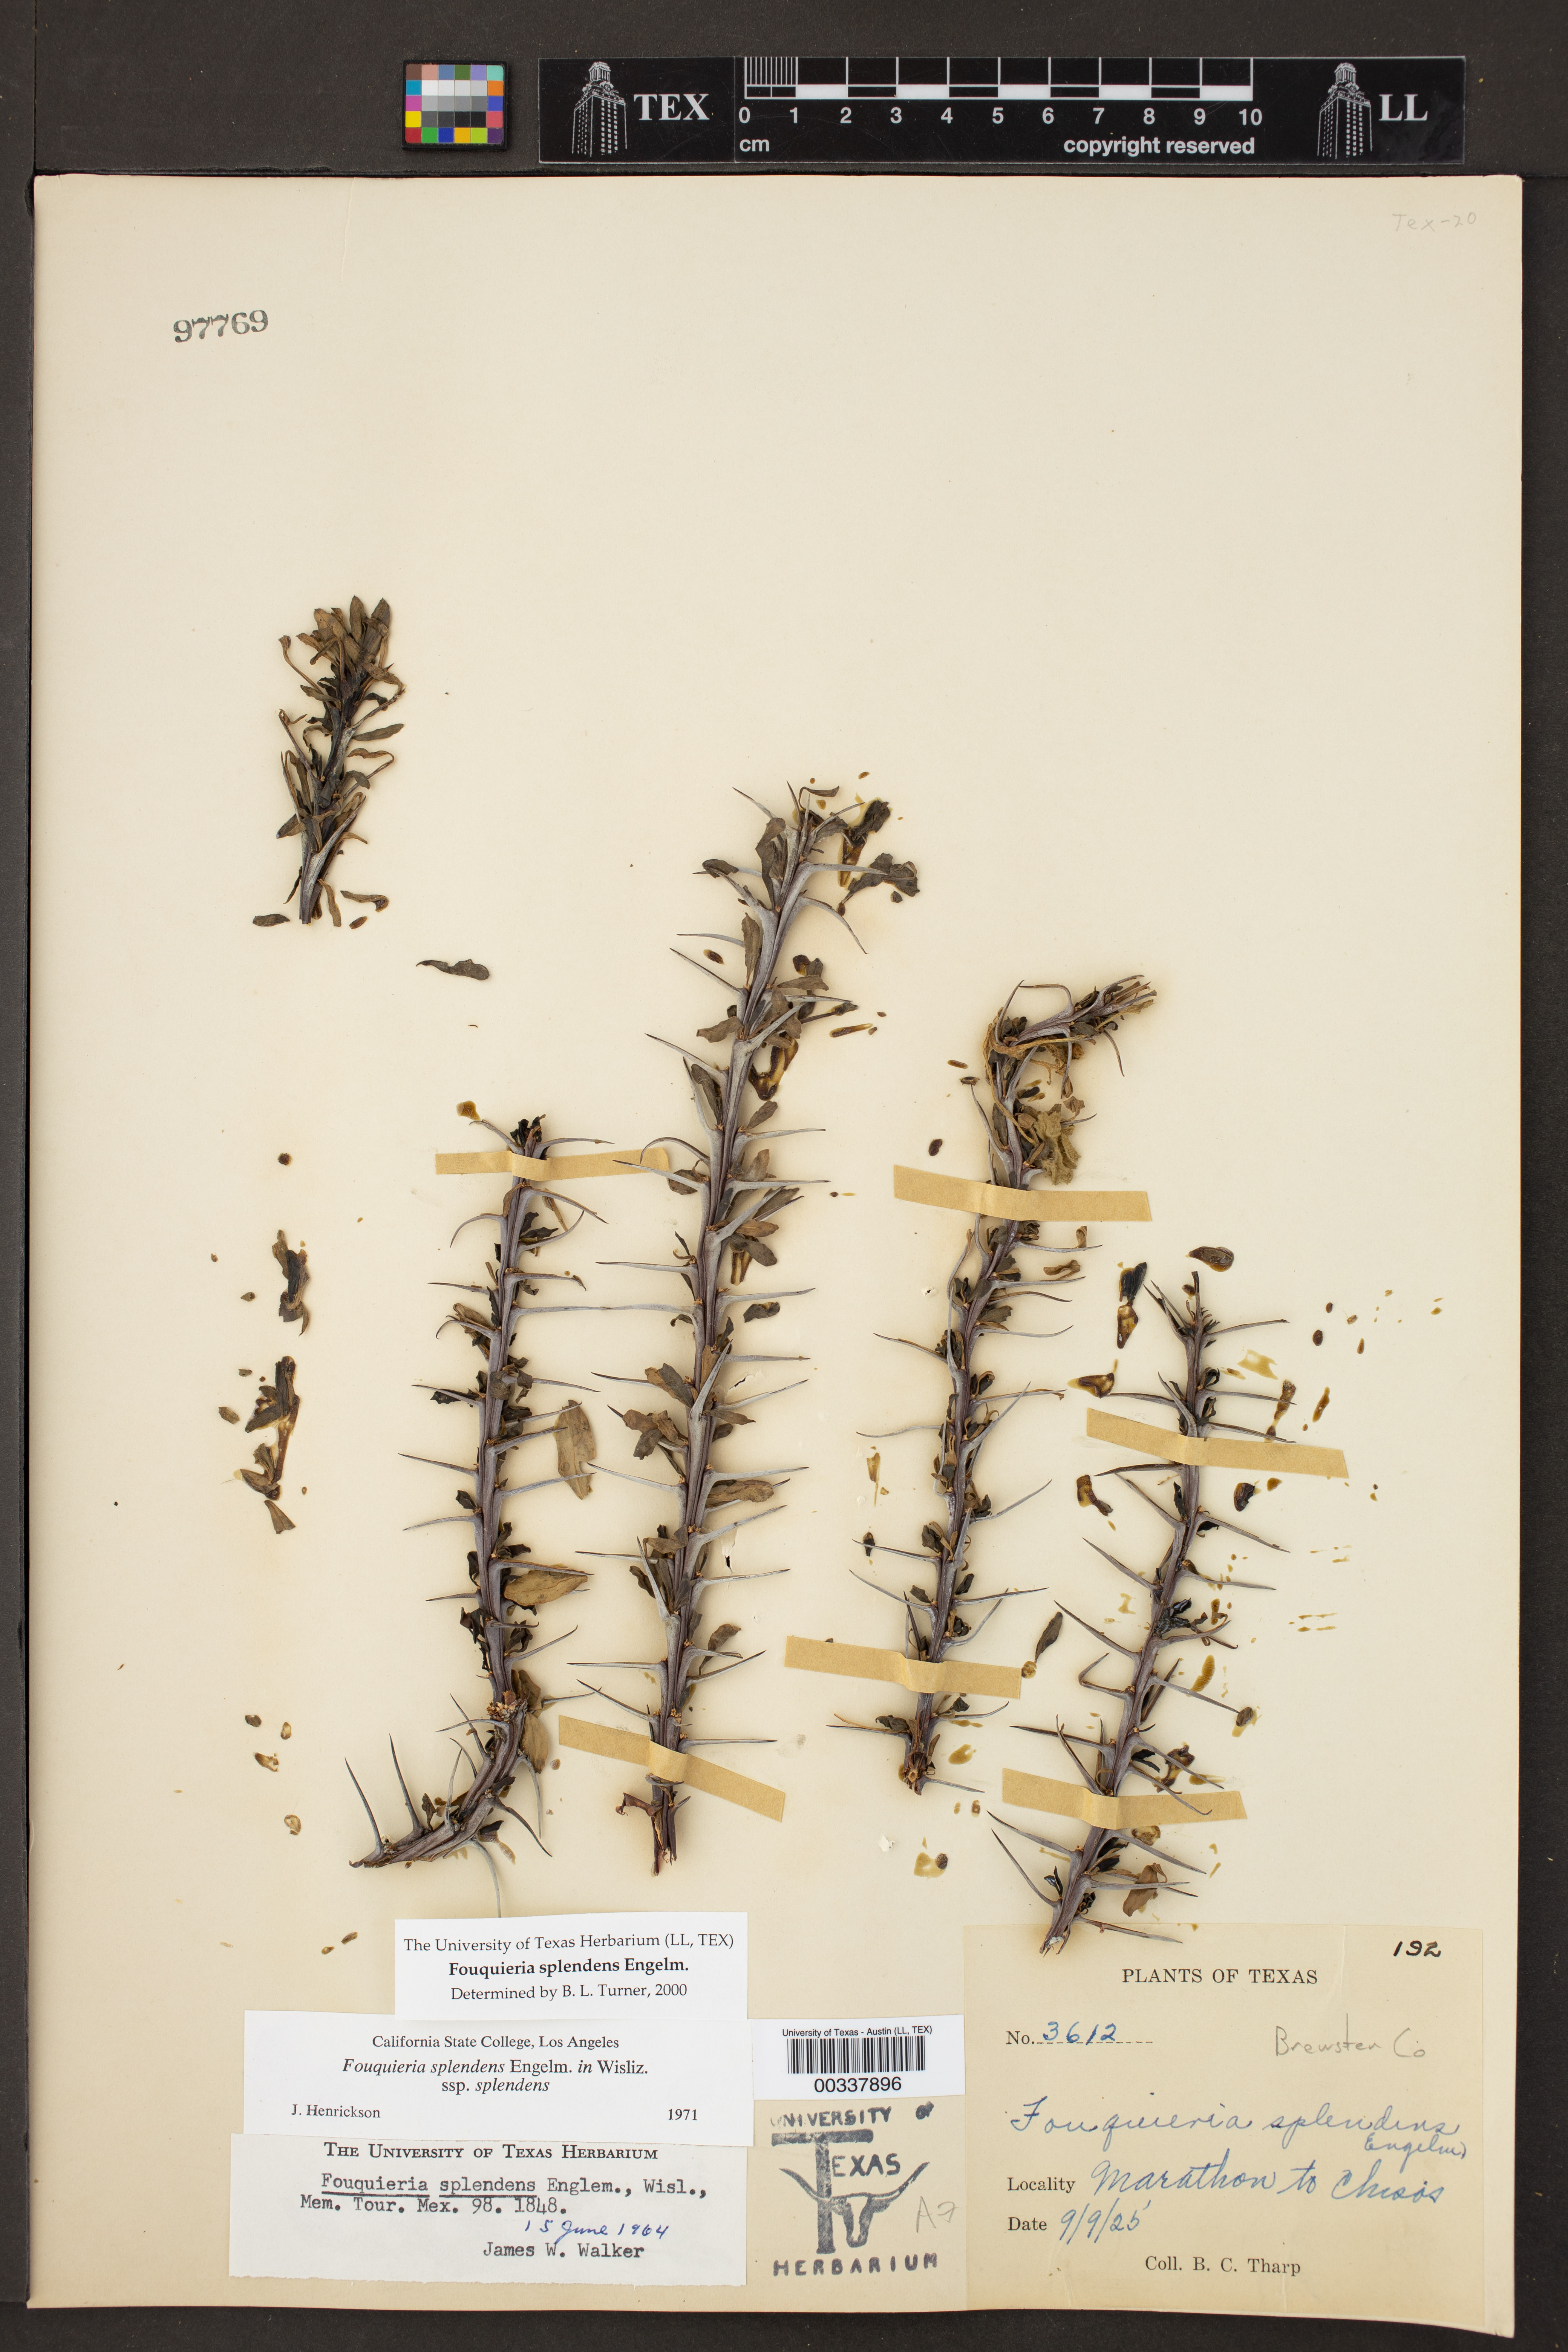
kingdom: Plantae
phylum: Tracheophyta
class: Magnoliopsida
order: Ericales
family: Fouquieriaceae
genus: Fouquieria
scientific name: Fouquieria splendens
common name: Vine-cactus
